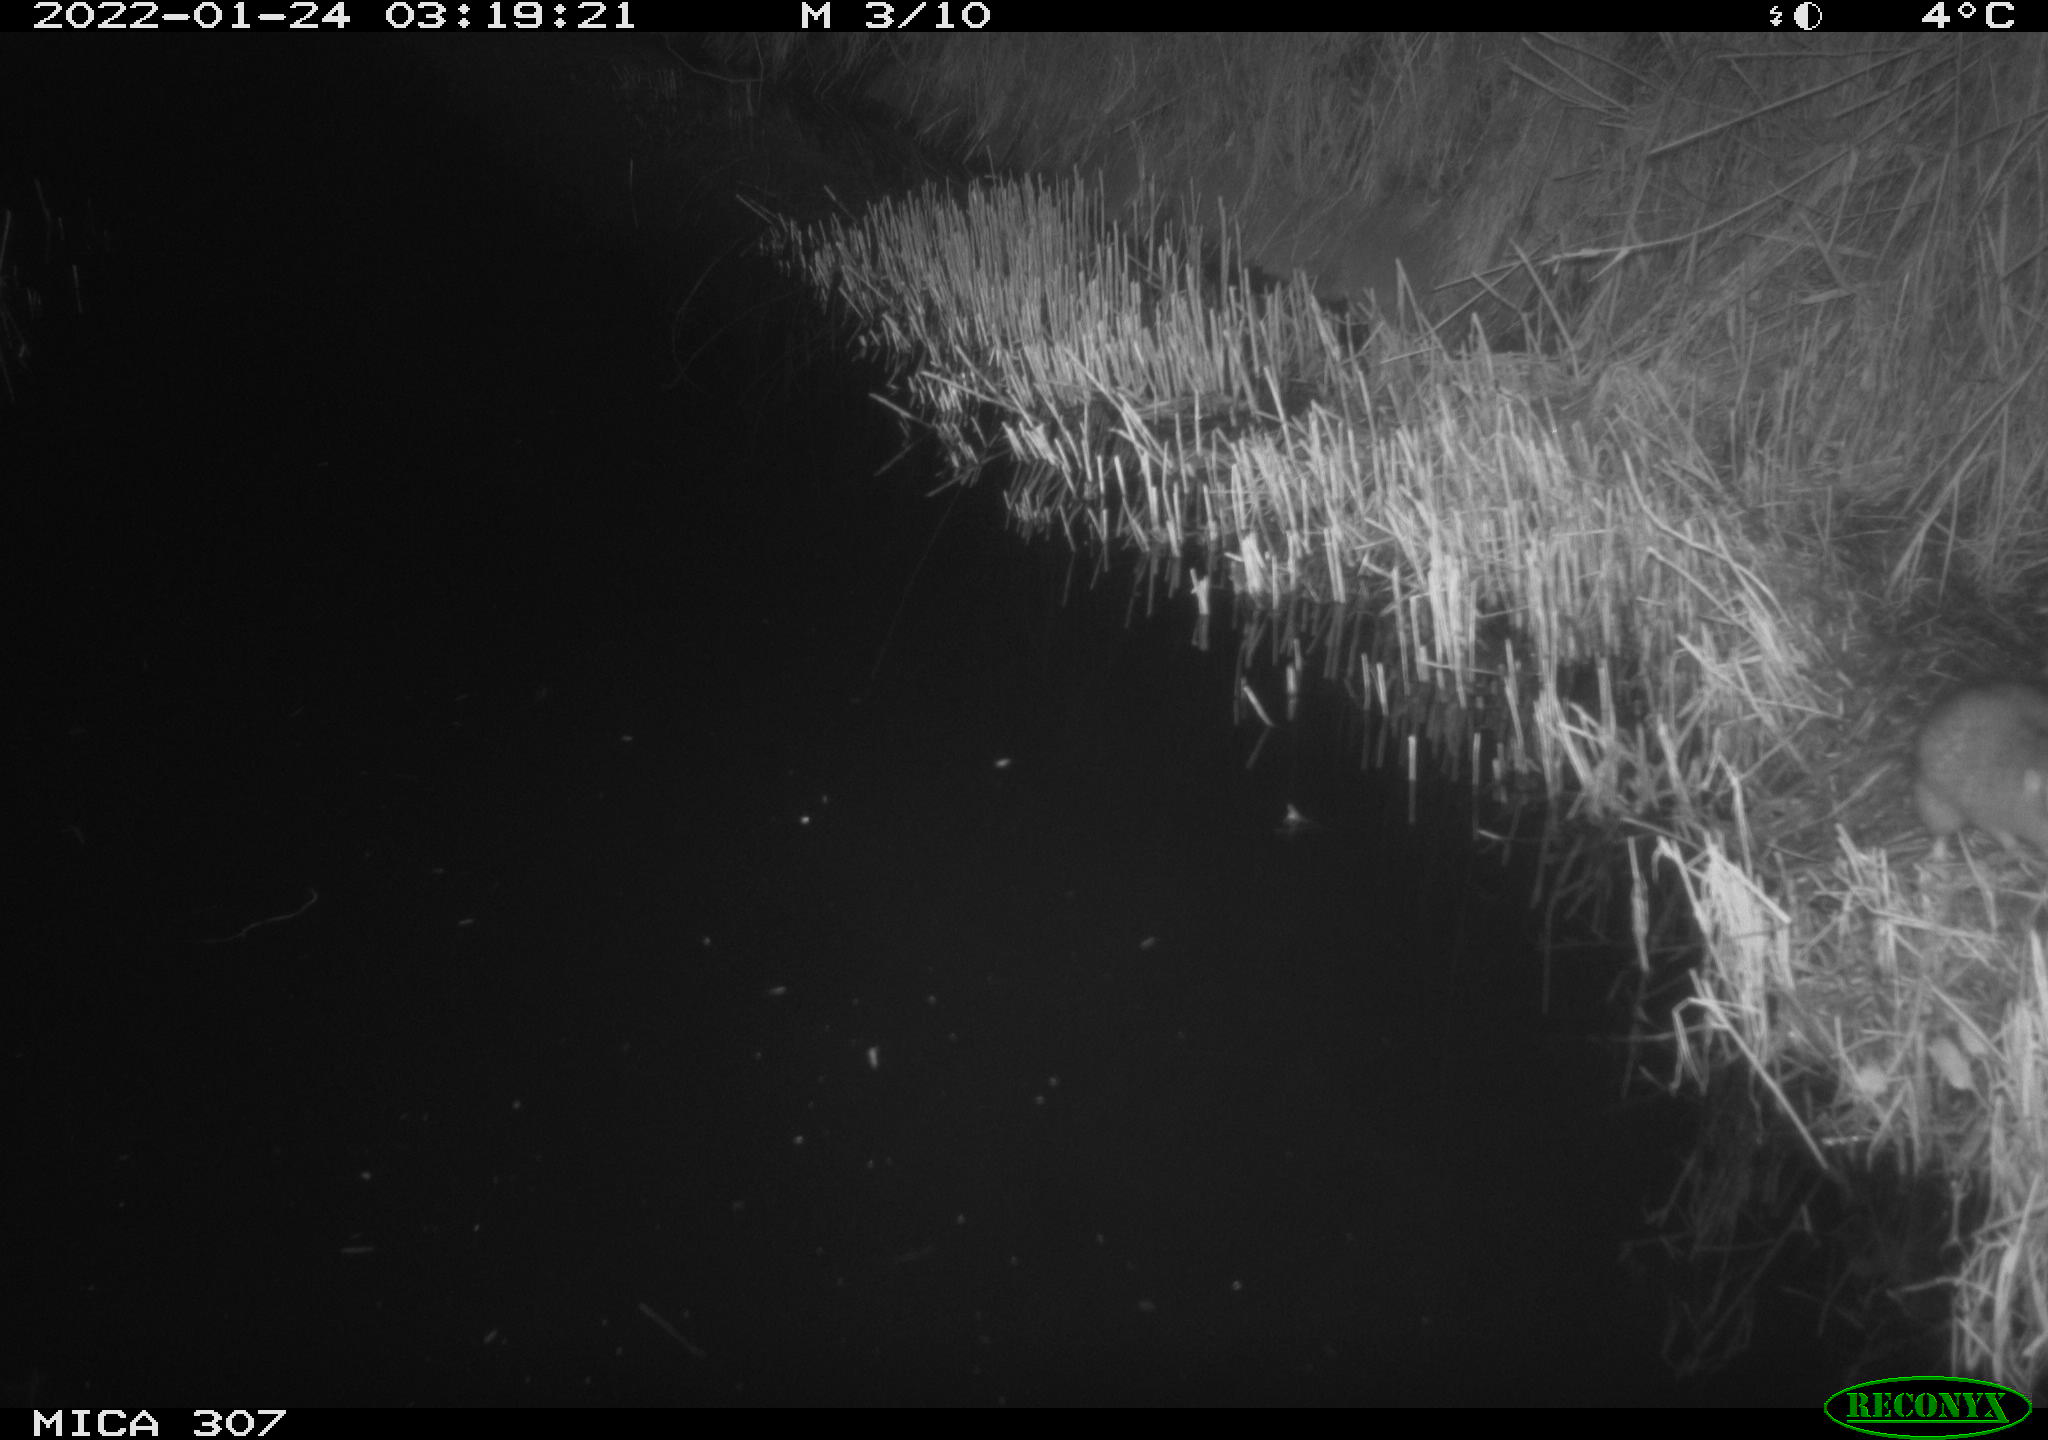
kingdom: Animalia
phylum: Chordata
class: Mammalia
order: Rodentia
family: Muridae
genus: Rattus
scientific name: Rattus norvegicus
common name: Brown rat
